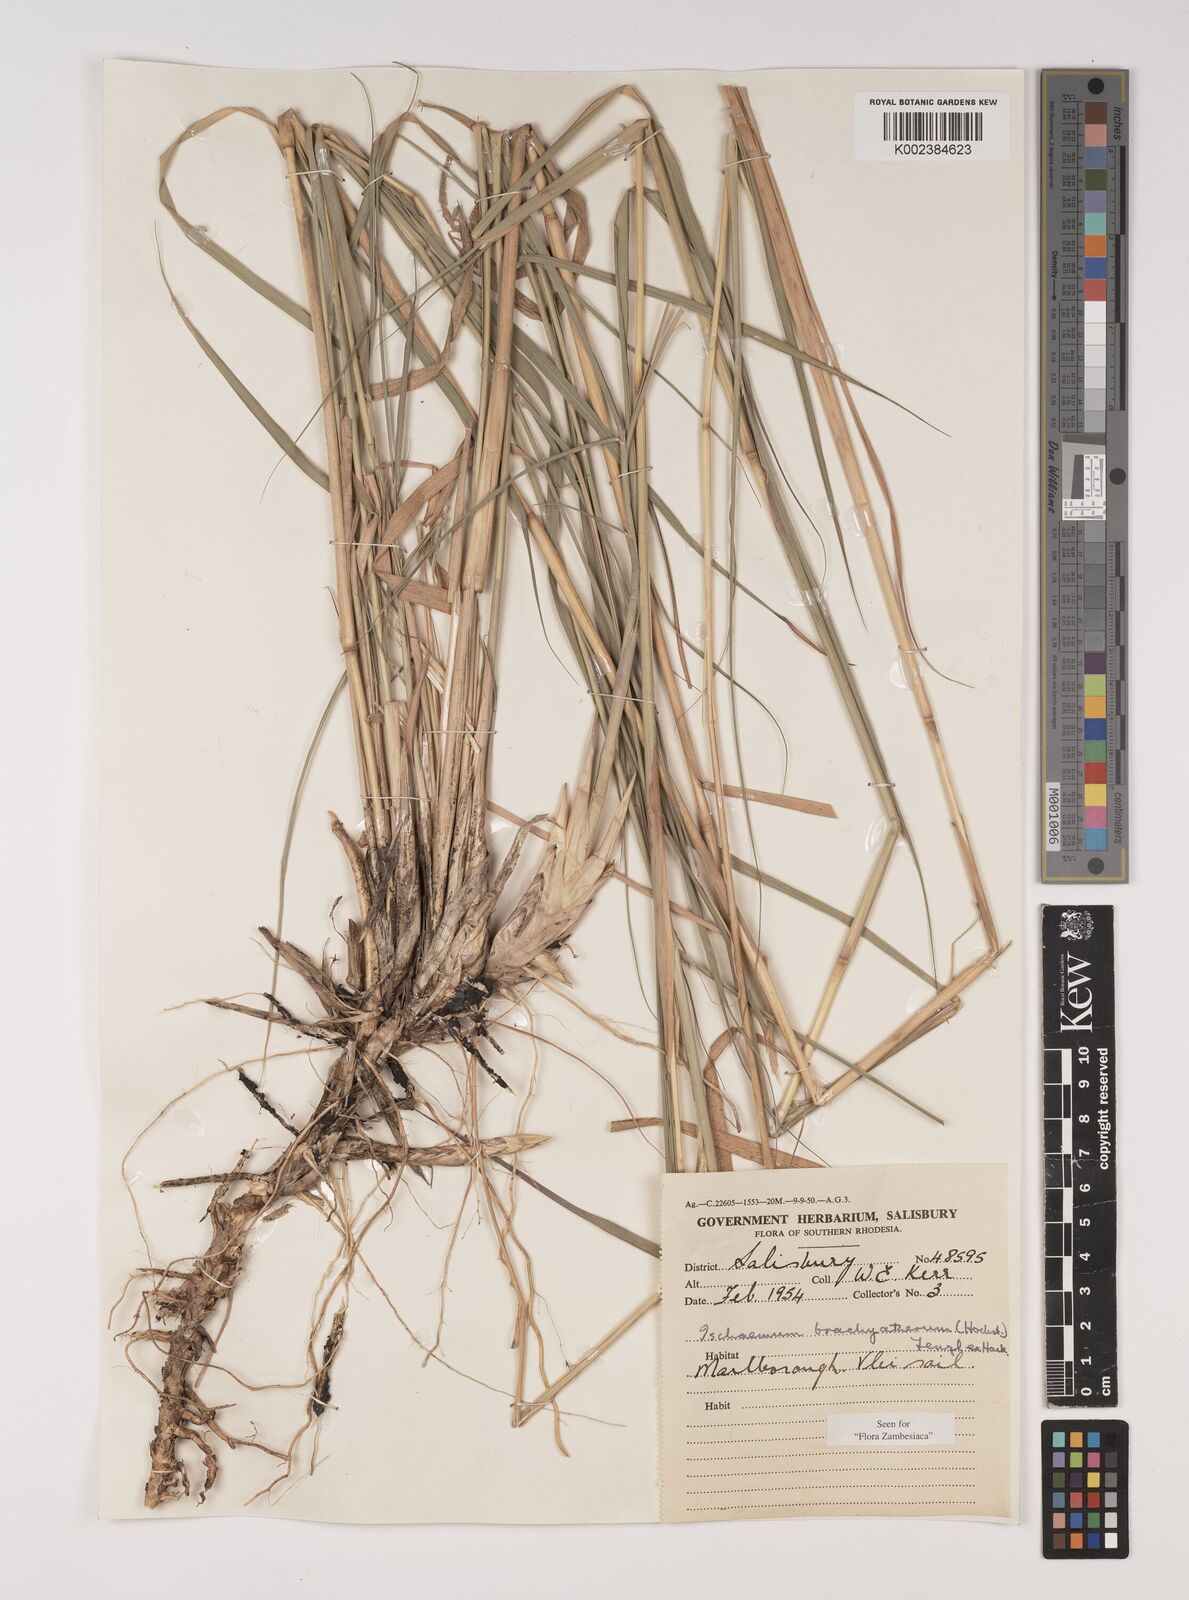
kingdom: Plantae
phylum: Tracheophyta
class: Liliopsida
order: Poales
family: Poaceae
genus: Ischaemum
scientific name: Ischaemum afrum
